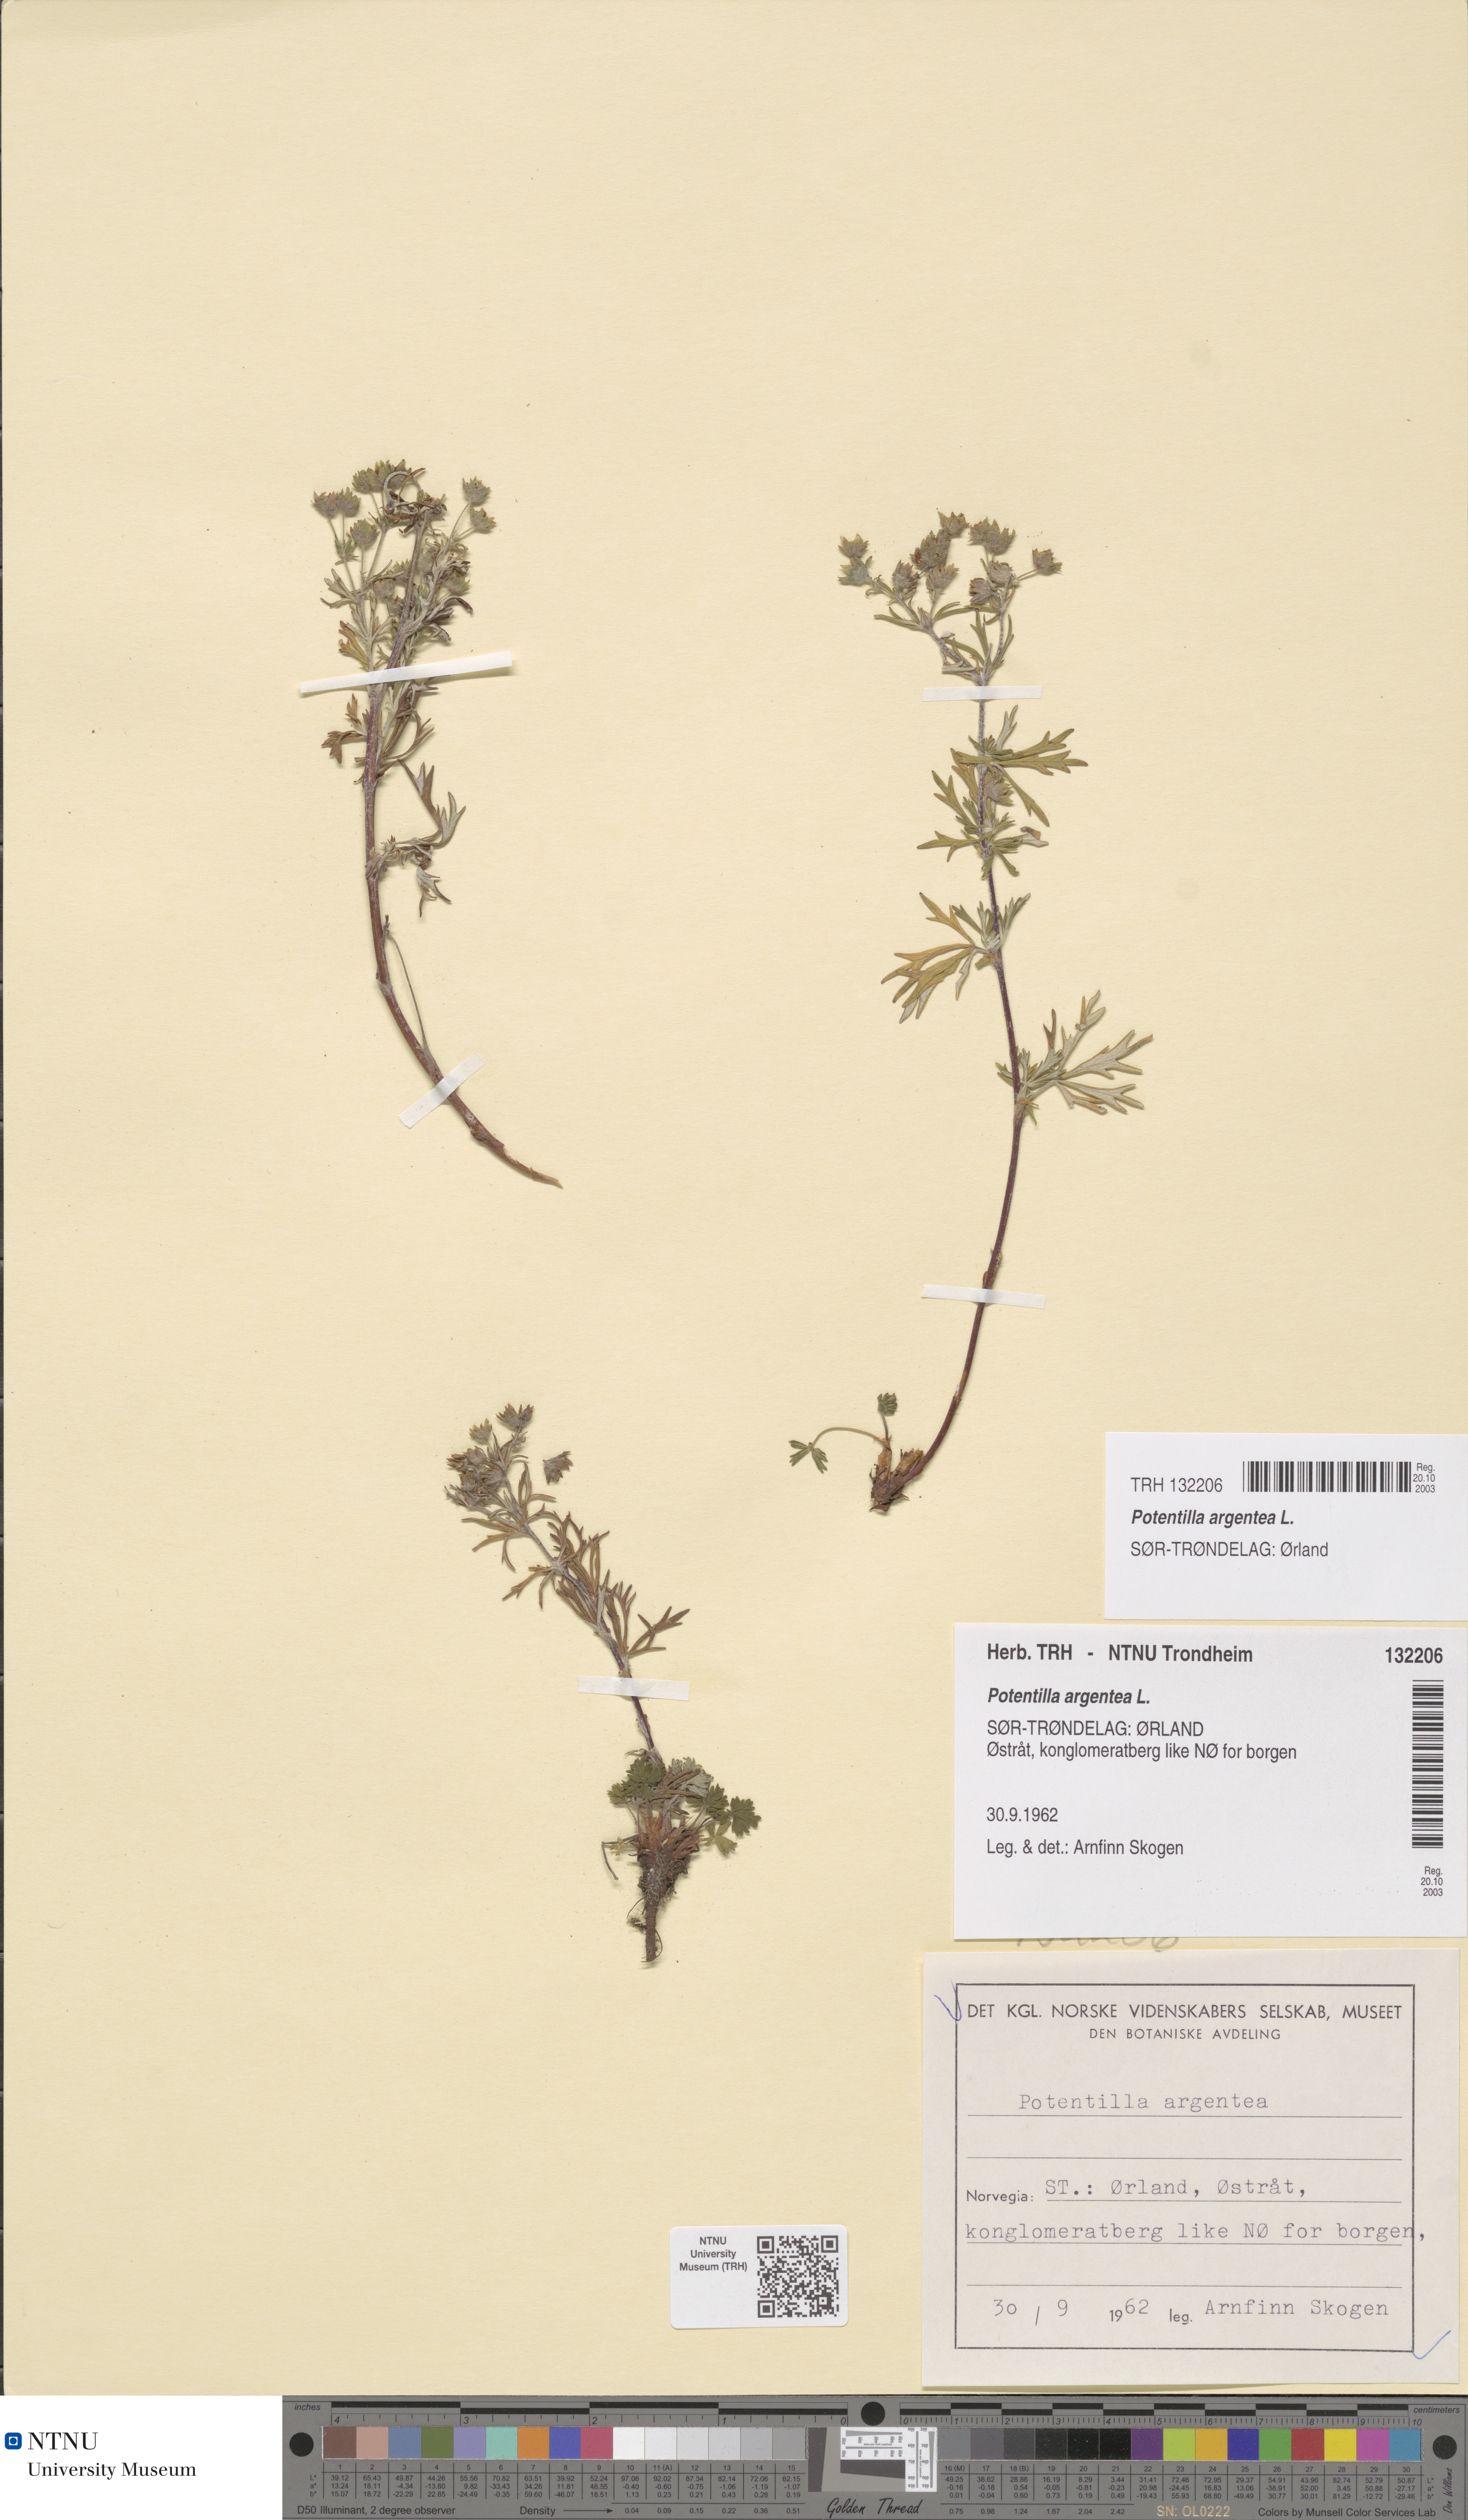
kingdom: Plantae
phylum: Tracheophyta
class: Magnoliopsida
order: Rosales
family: Rosaceae
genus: Potentilla
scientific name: Potentilla argentea
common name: Hoary cinquefoil
